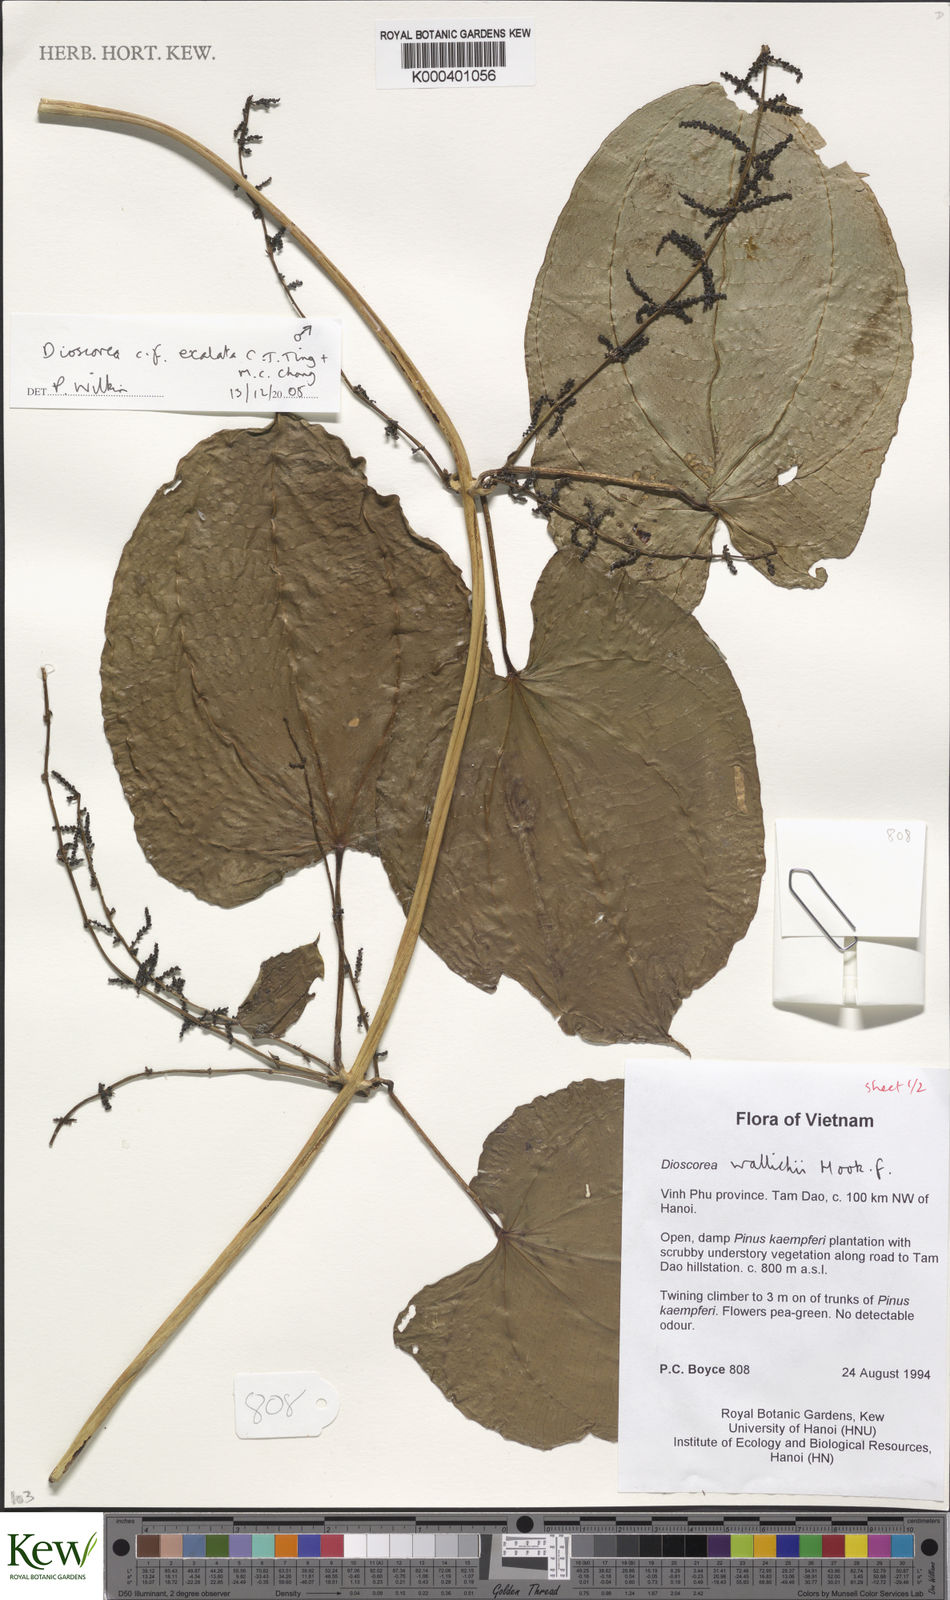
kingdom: Plantae
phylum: Tracheophyta
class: Liliopsida
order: Dioscoreales
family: Dioscoreaceae
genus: Dioscorea
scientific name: Dioscorea wallichii
